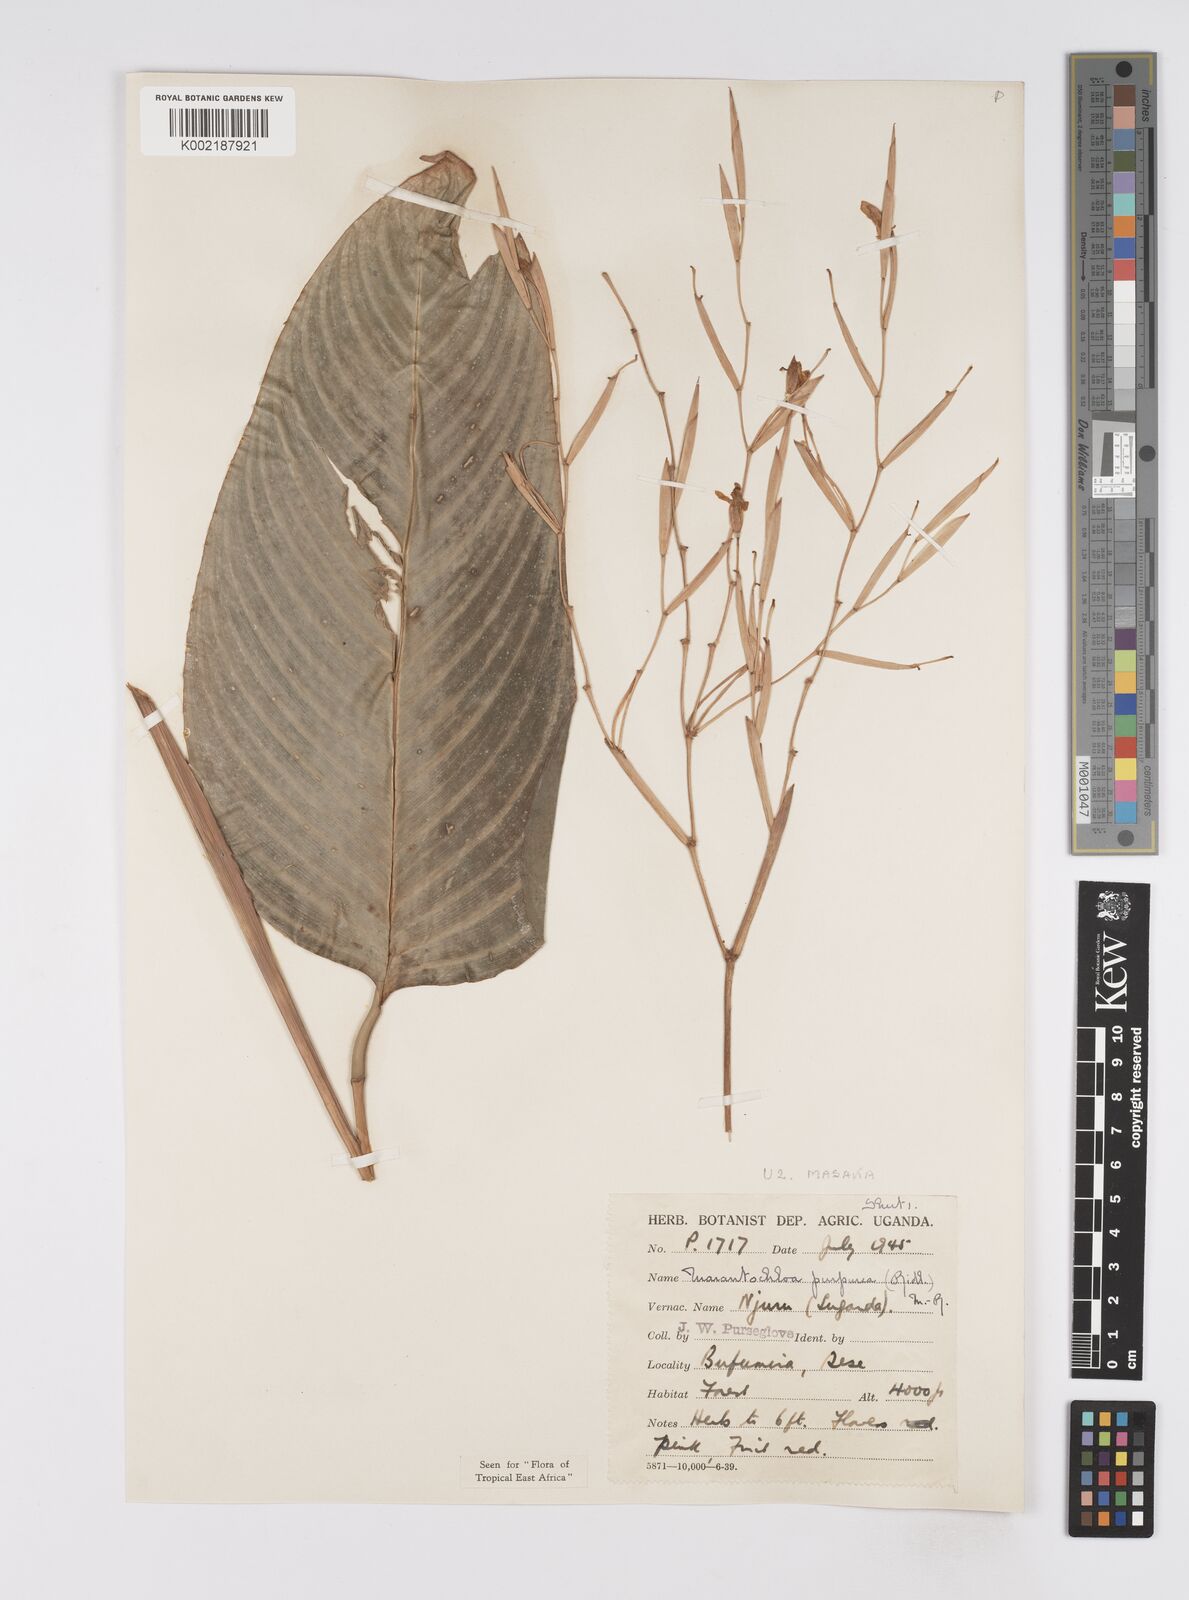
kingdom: Plantae
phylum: Tracheophyta
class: Liliopsida
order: Zingiberales
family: Marantaceae
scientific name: Marantaceae
